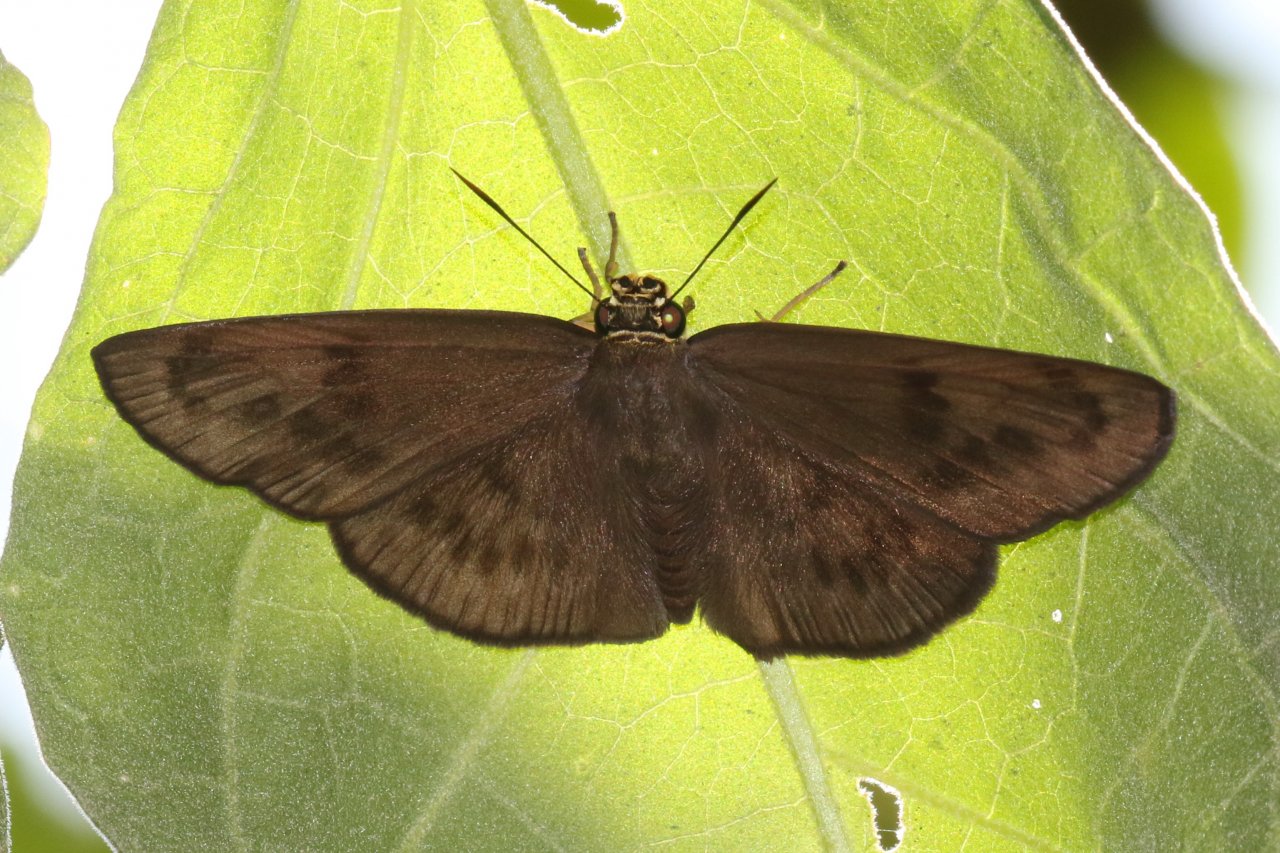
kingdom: Animalia
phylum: Arthropoda
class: Insecta
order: Lepidoptera
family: Hesperiidae
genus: Grais
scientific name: Grais stigmaticus
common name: Hermit Skipper
